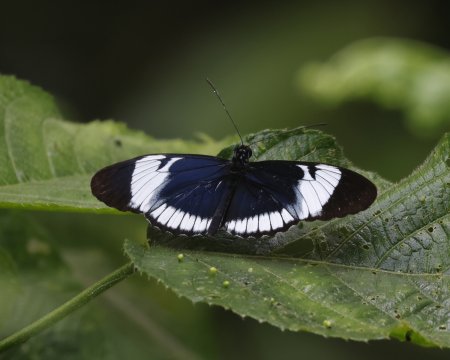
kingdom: Animalia
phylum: Arthropoda
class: Insecta
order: Lepidoptera
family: Nymphalidae
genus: Heliconius
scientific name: Heliconius cydno
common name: Cydno Longwing
